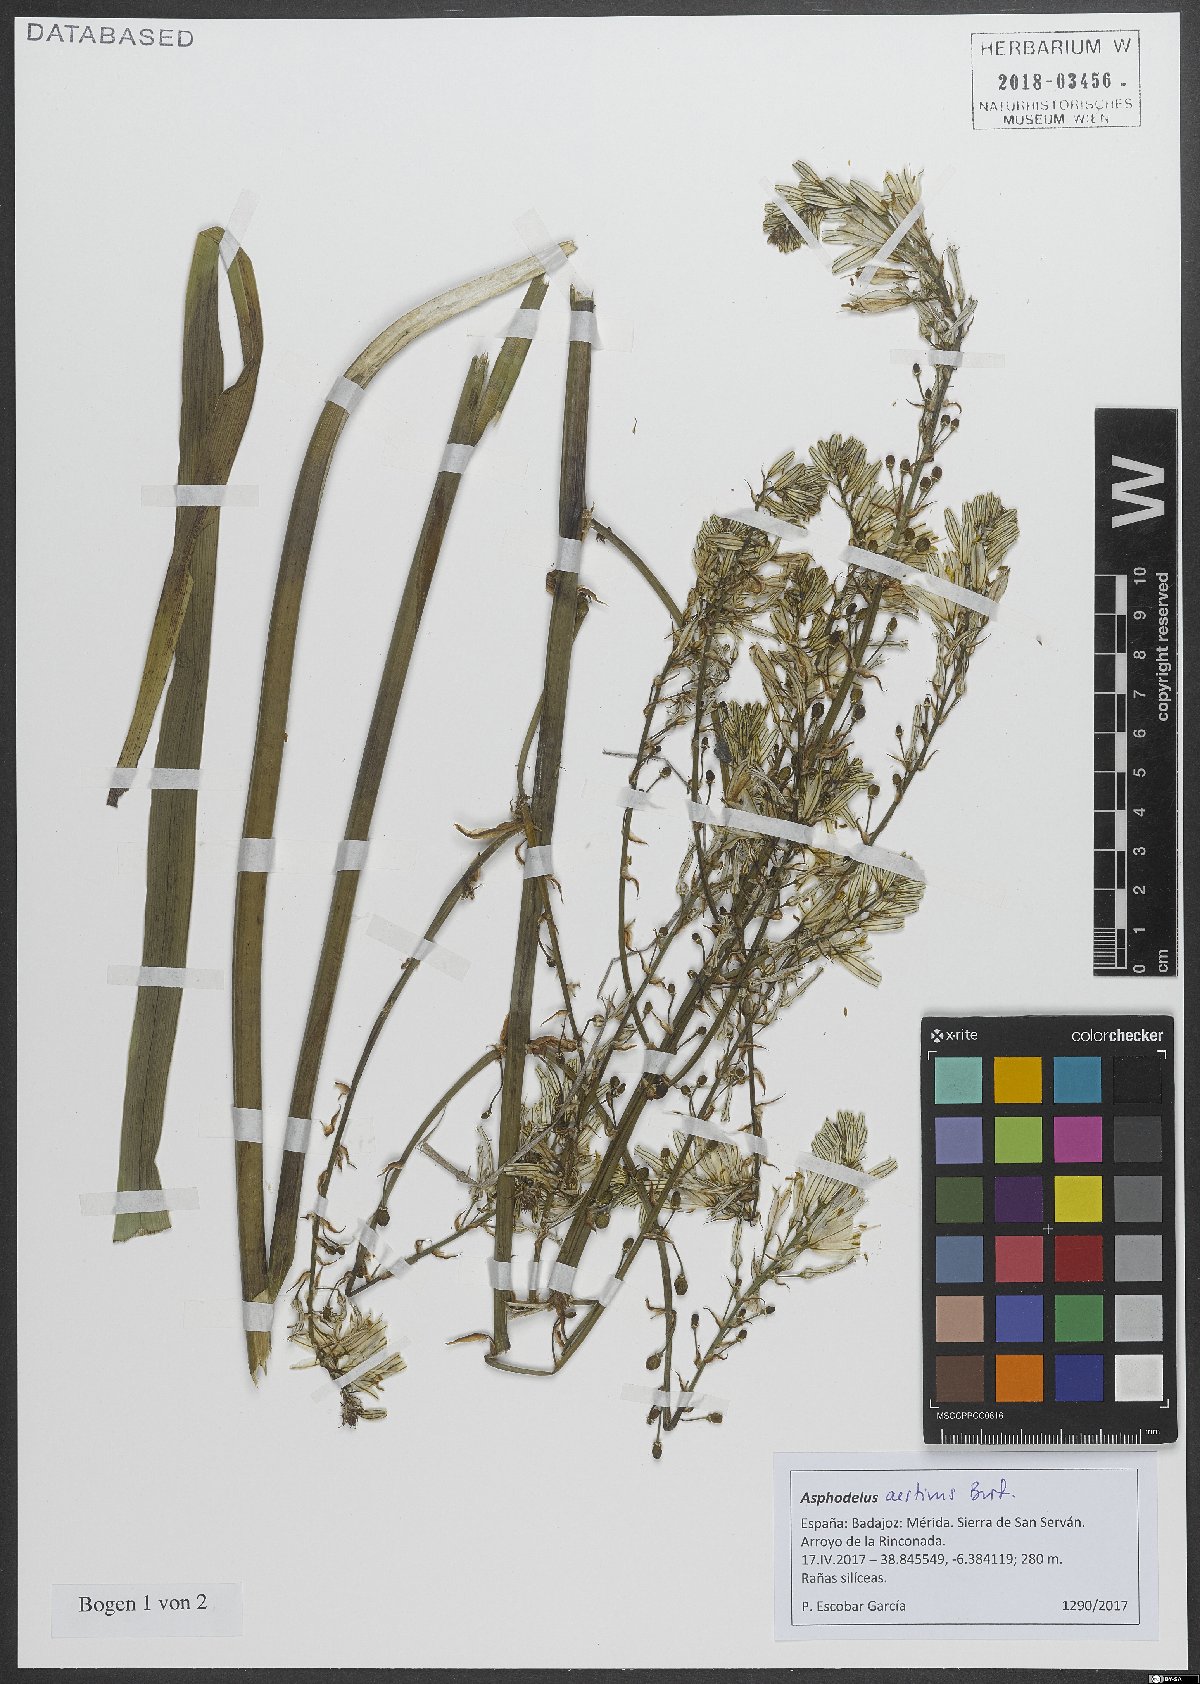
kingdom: Plantae
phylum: Tracheophyta
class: Liliopsida
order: Asparagales
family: Asphodelaceae
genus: Asphodelus
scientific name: Asphodelus aestivus
